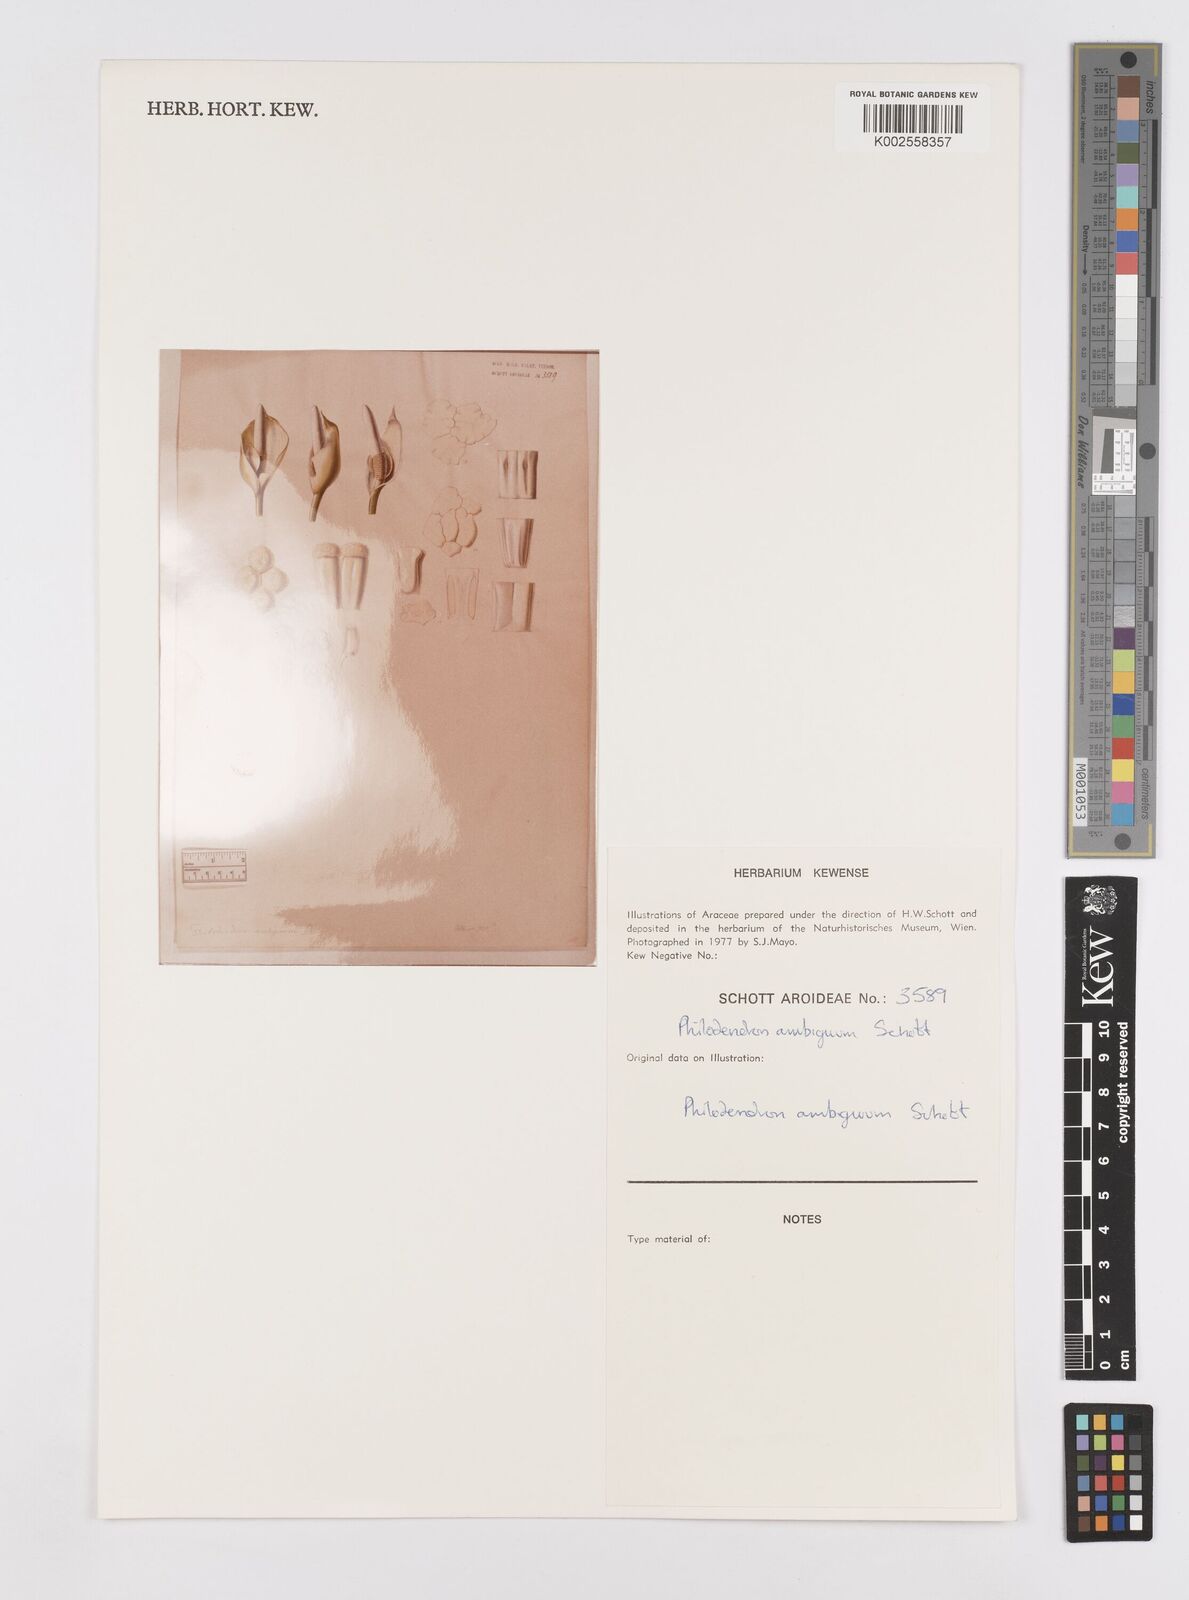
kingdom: Plantae
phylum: Tracheophyta
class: Liliopsida
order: Alismatales
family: Araceae
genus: Philodendron
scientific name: Philodendron propinquum
